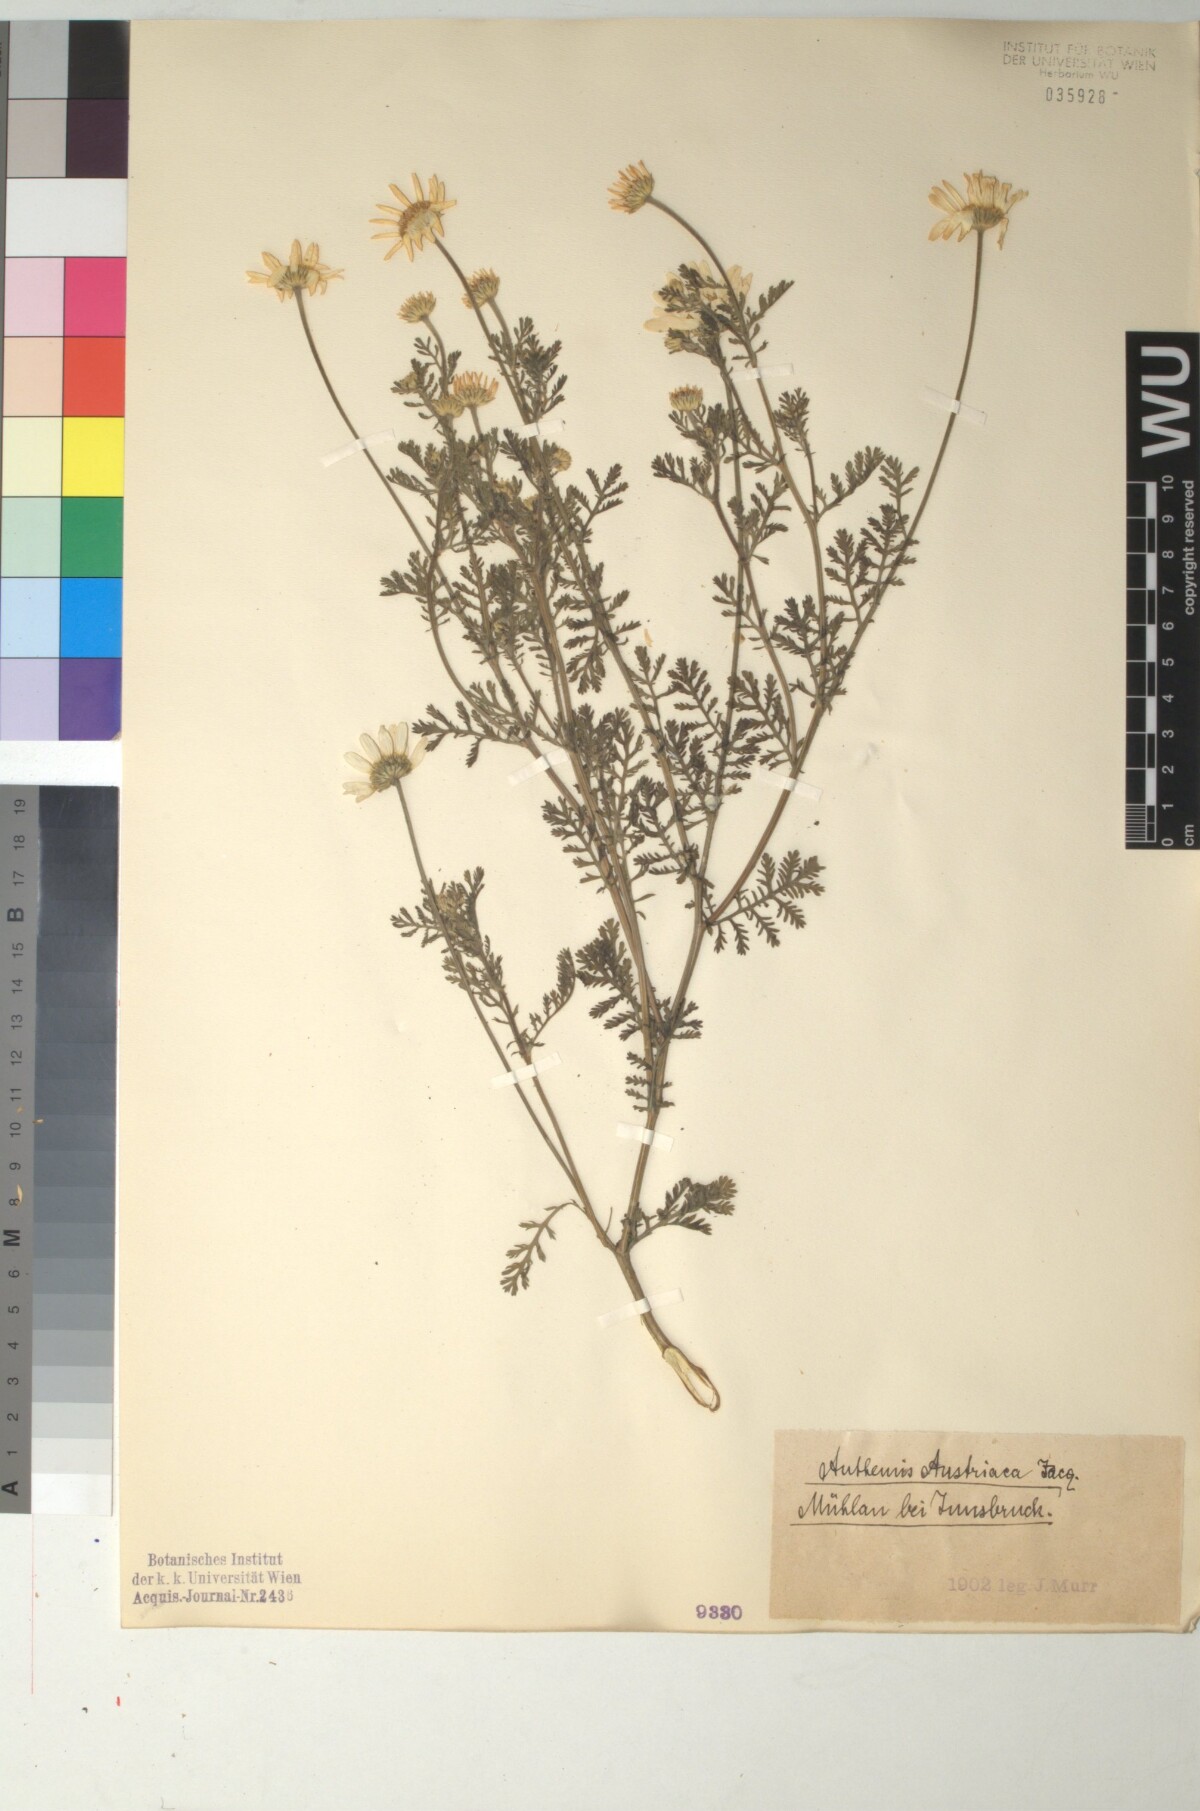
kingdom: Plantae
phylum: Tracheophyta
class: Magnoliopsida
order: Asterales
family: Asteraceae
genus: Cota
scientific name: Cota austriaca
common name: Austrian chamomile
